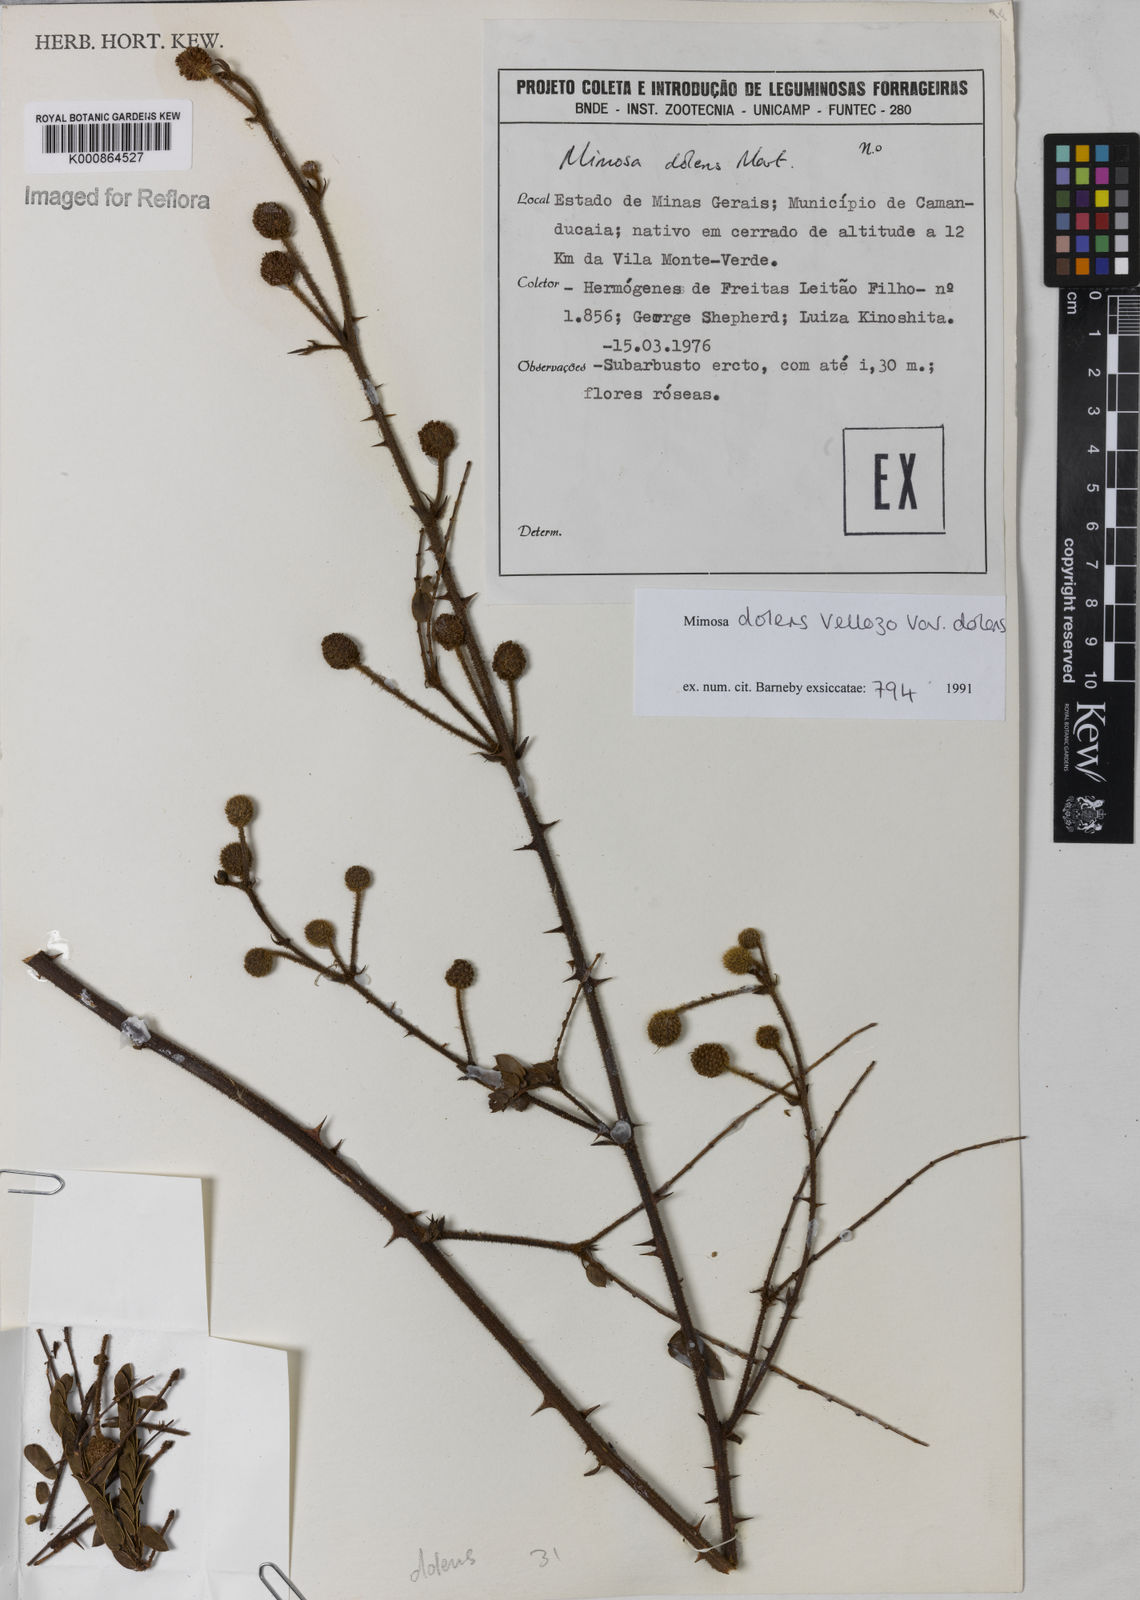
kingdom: Plantae
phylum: Tracheophyta
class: Magnoliopsida
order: Fabales
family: Fabaceae
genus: Mimosa
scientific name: Mimosa dolens
